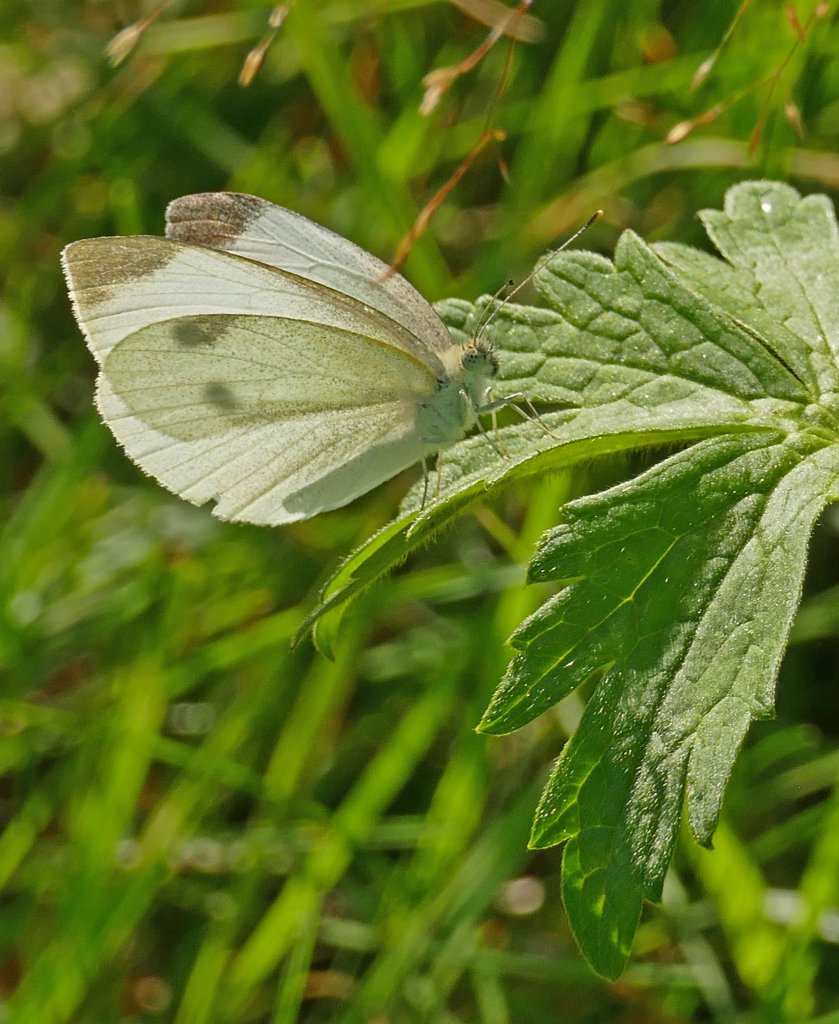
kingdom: Animalia
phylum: Arthropoda
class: Insecta
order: Lepidoptera
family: Pieridae
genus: Pieris
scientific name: Pieris rapae
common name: Cabbage White
